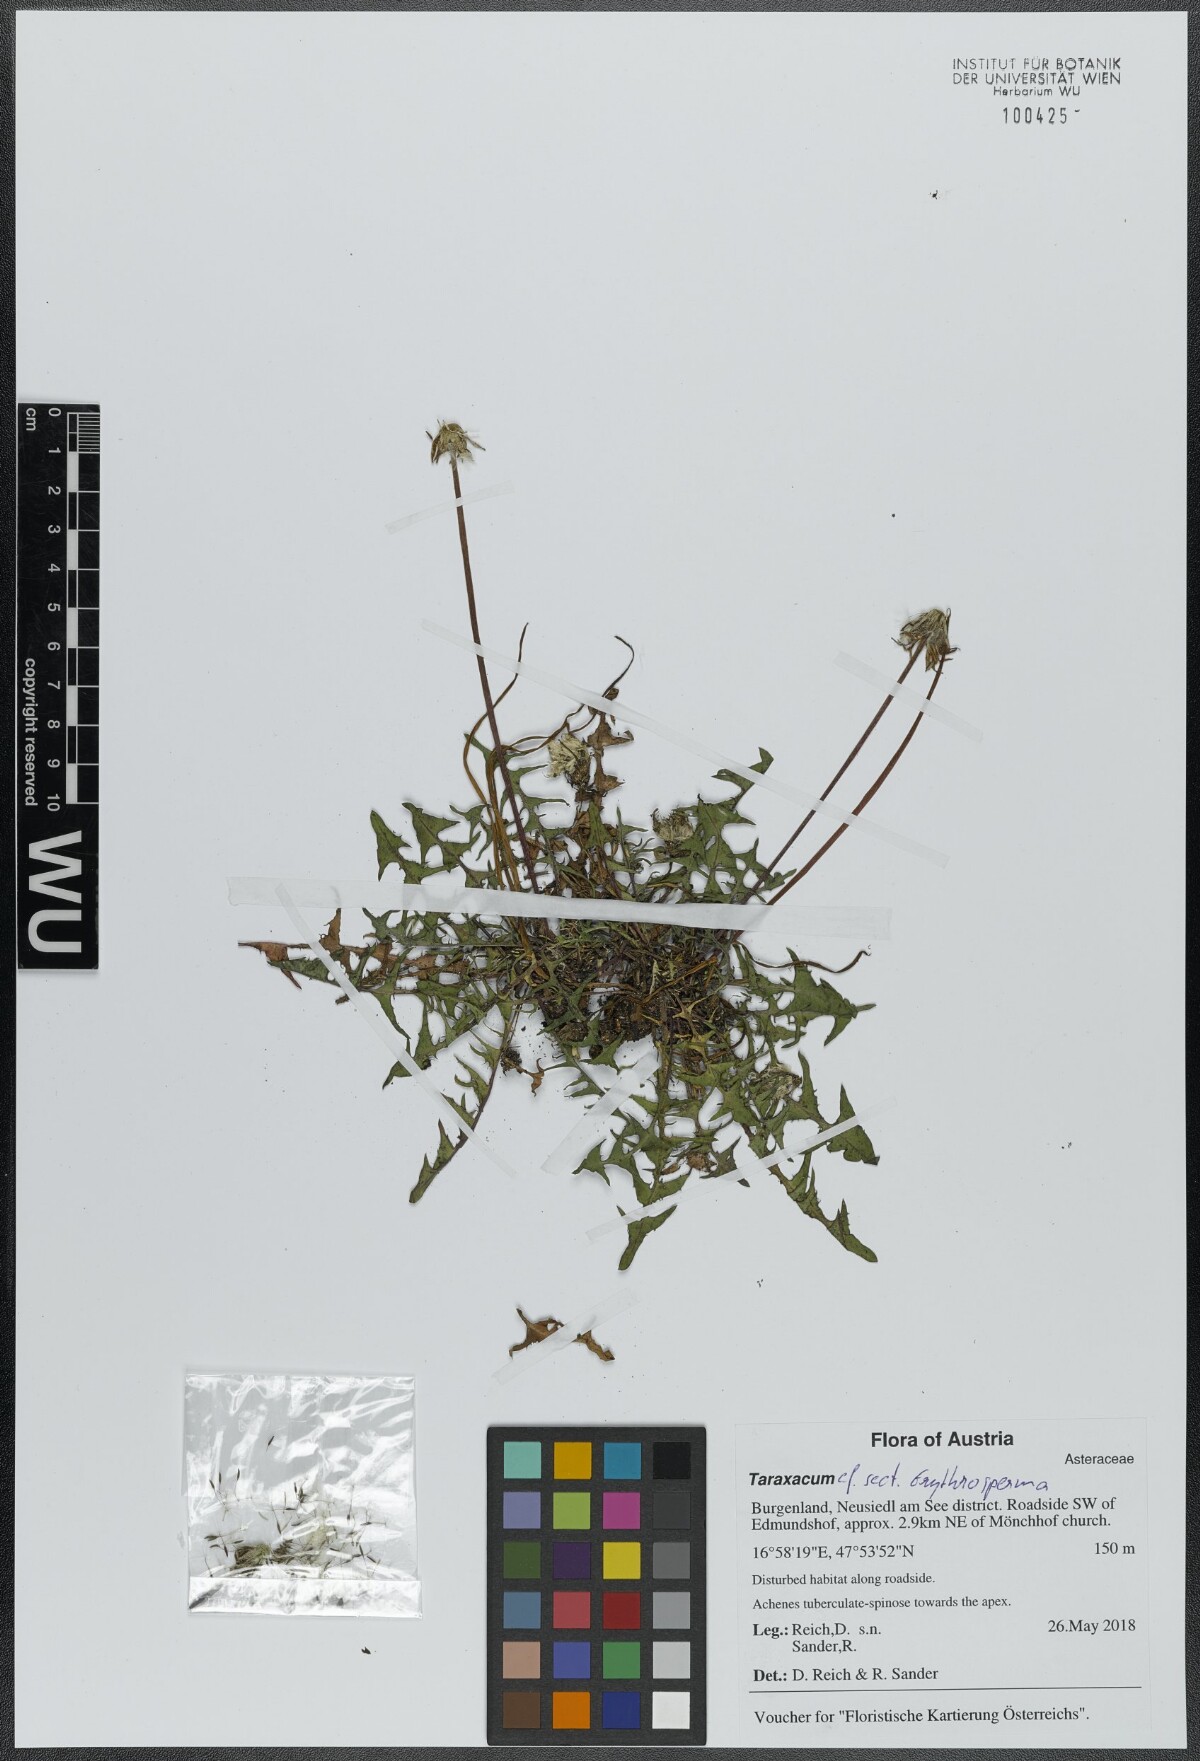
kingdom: Plantae
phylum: Tracheophyta
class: Magnoliopsida
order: Asterales
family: Asteraceae
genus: Taraxacum
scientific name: Taraxacum
